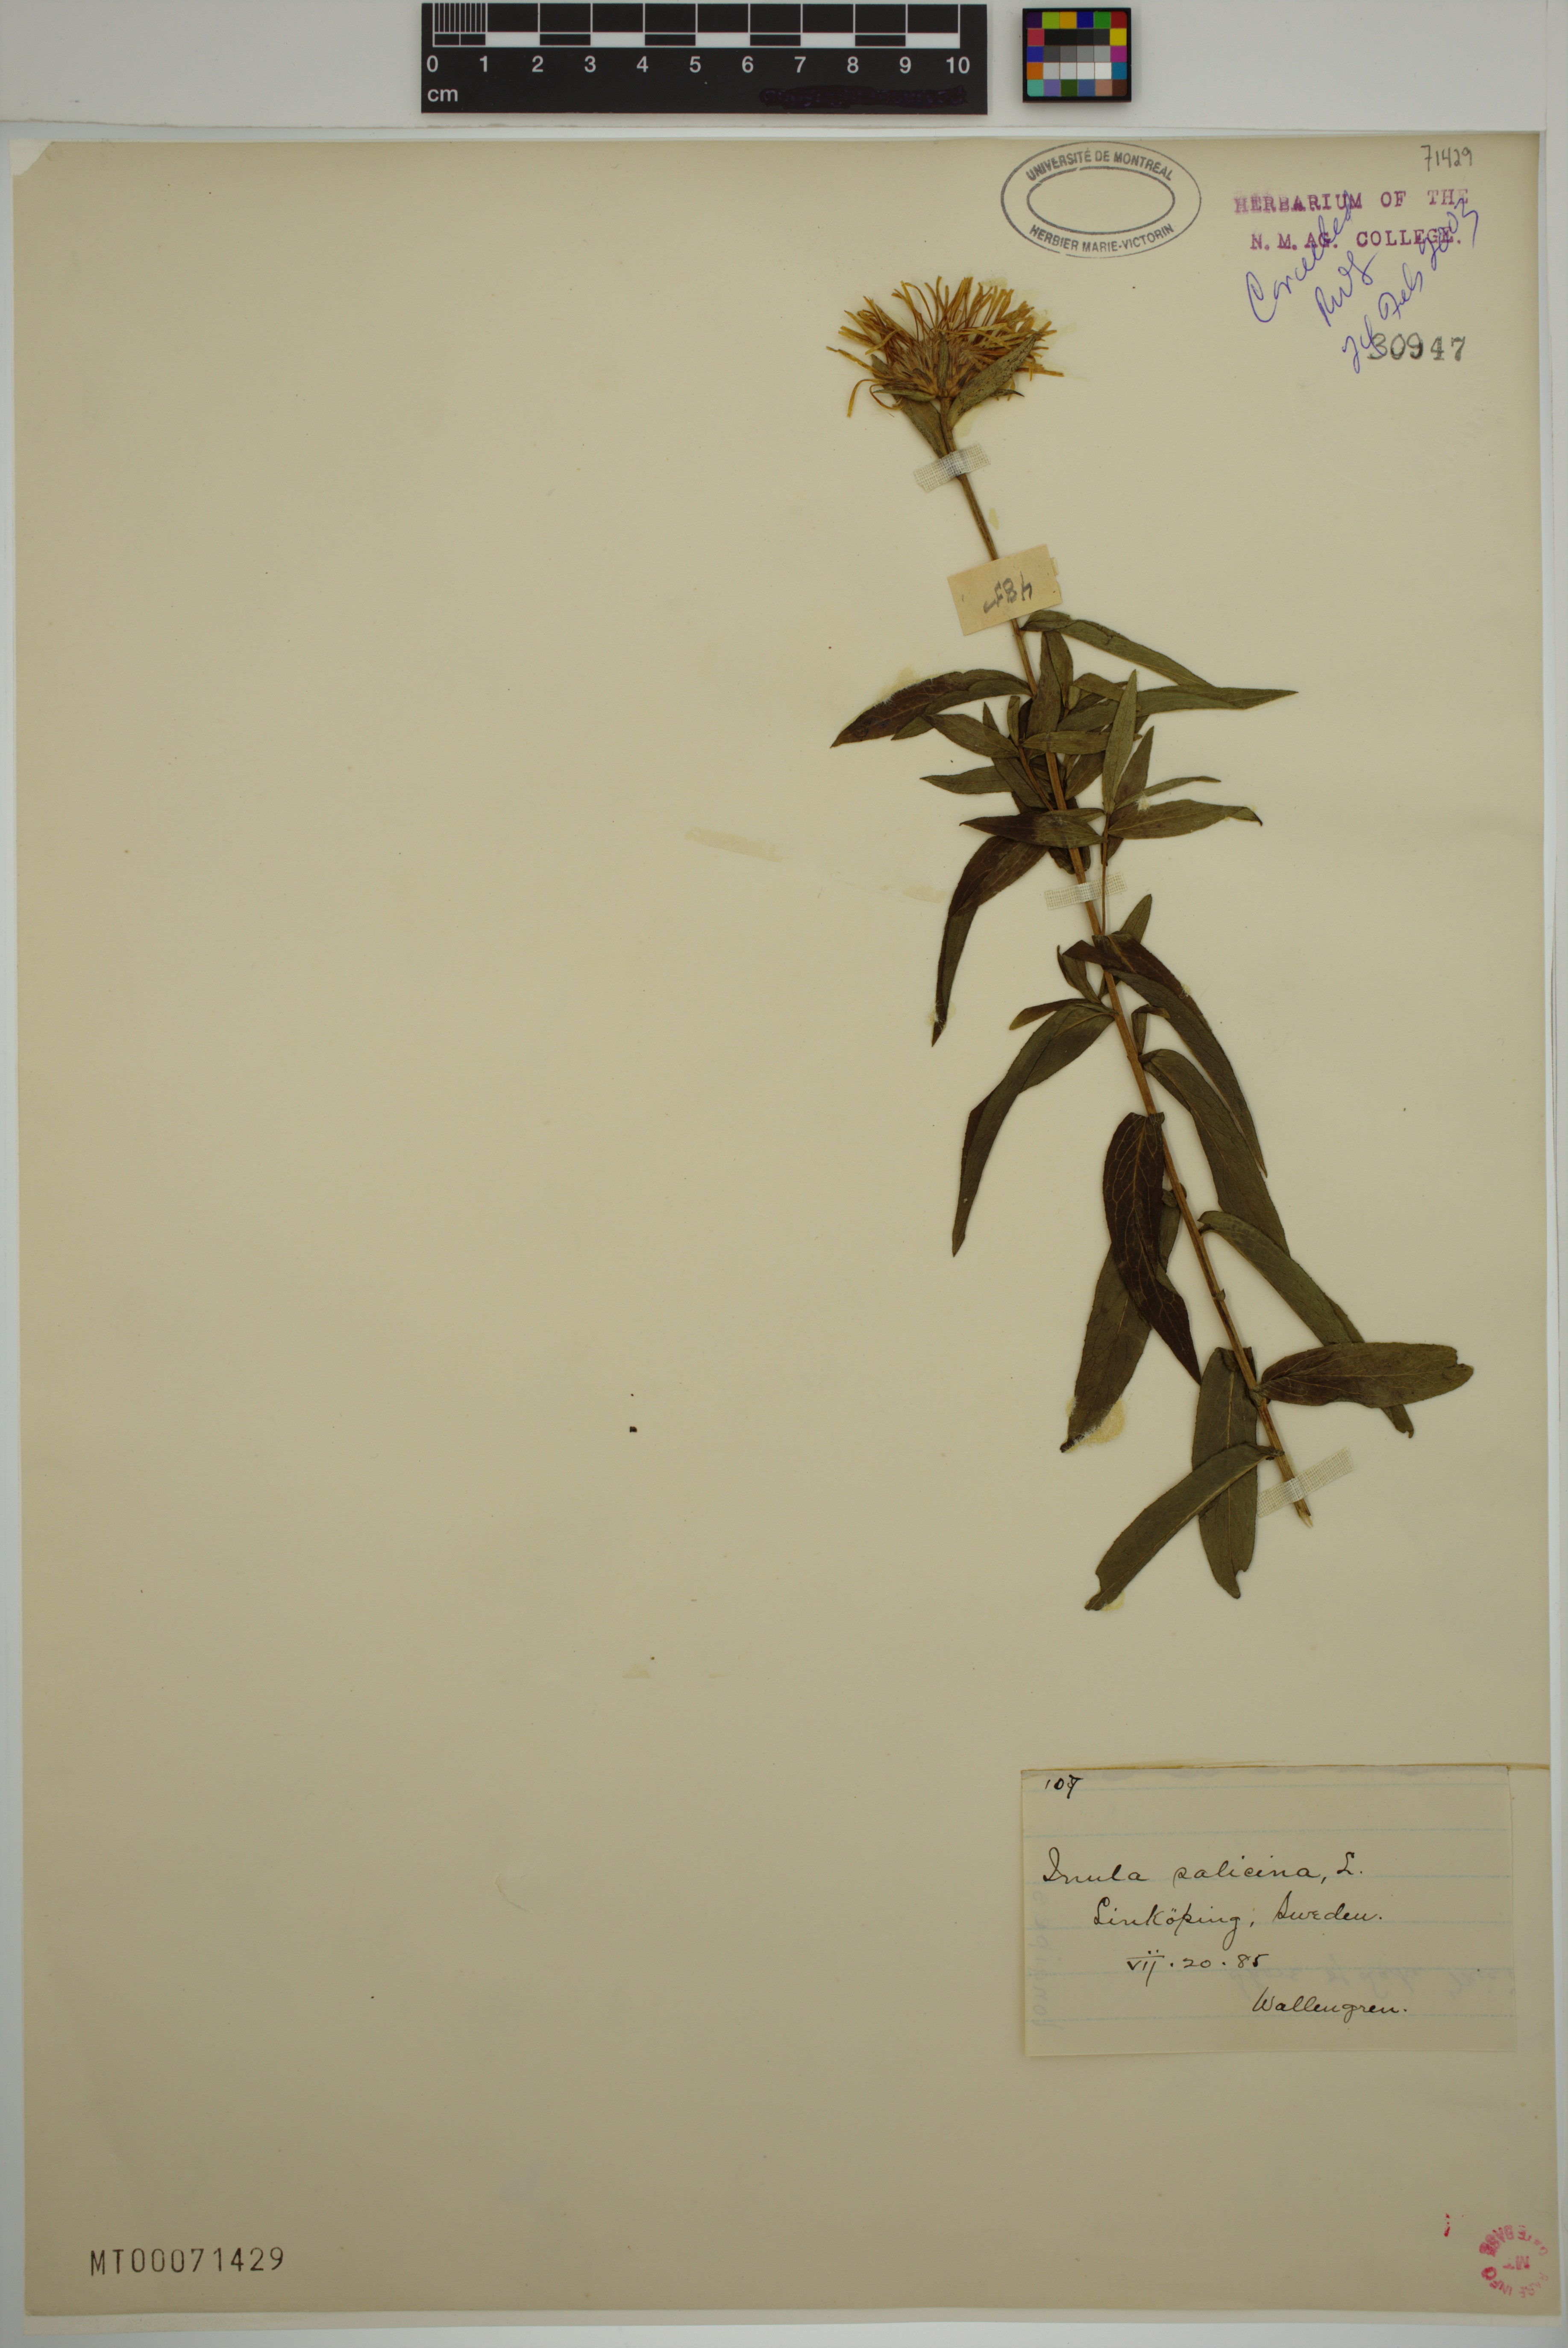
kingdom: Plantae
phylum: Tracheophyta
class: Magnoliopsida
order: Asterales
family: Asteraceae
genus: Pentanema
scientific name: Pentanema salicinum
